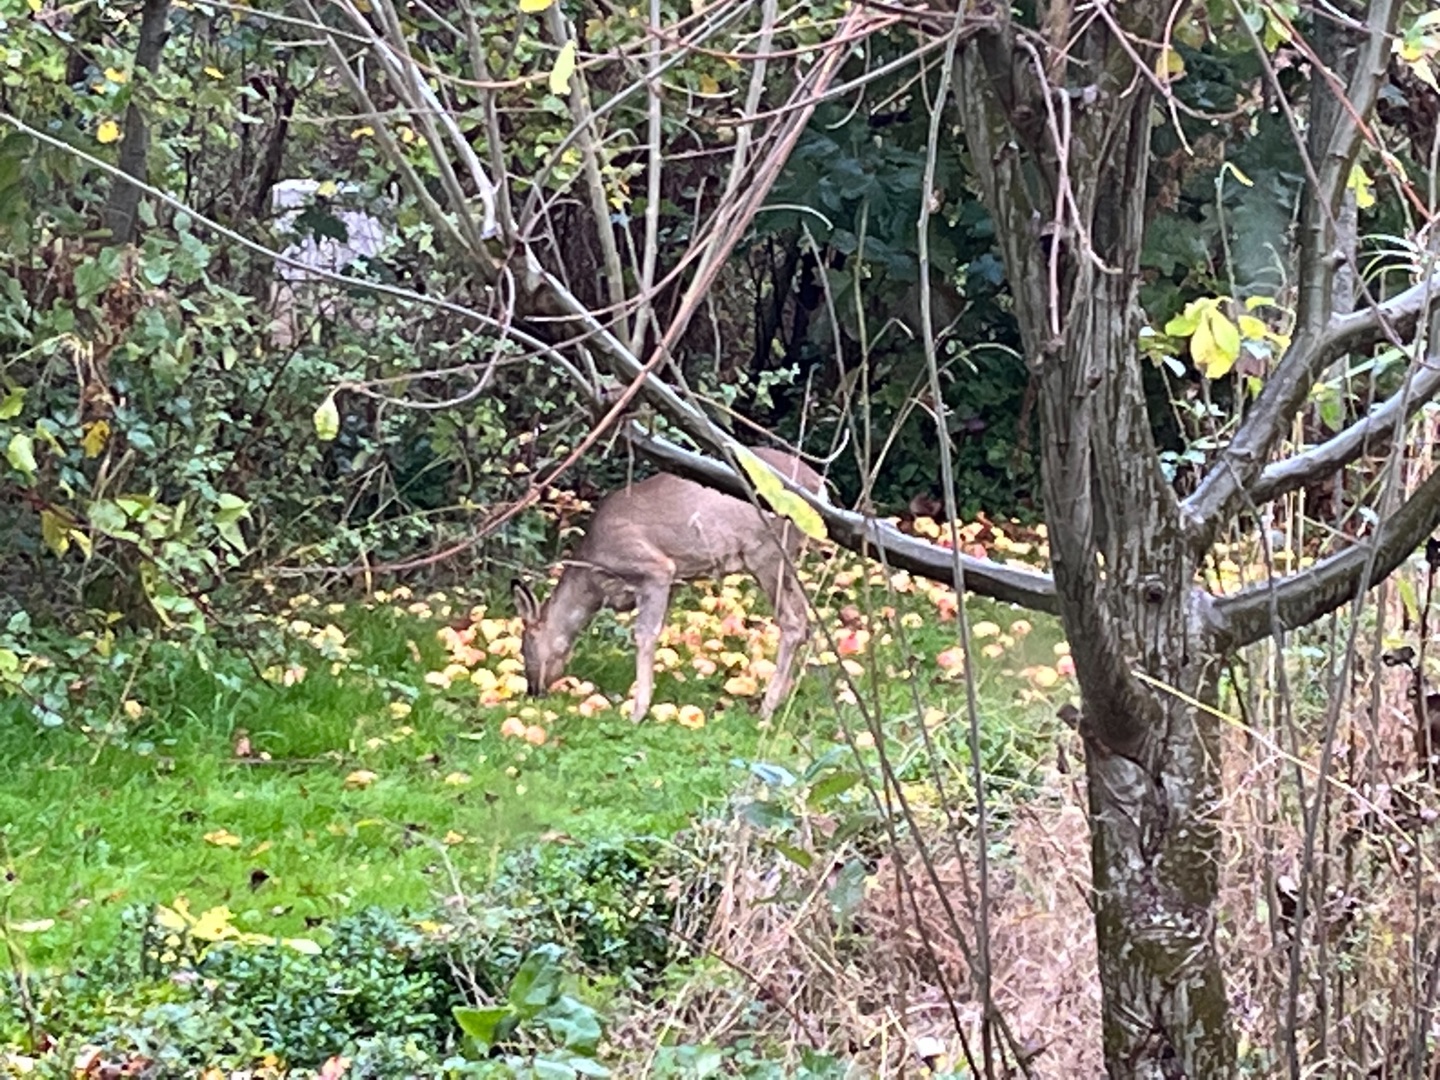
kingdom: Animalia
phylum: Chordata
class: Mammalia
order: Artiodactyla
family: Cervidae
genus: Capreolus
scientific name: Capreolus capreolus
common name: Rådyr
